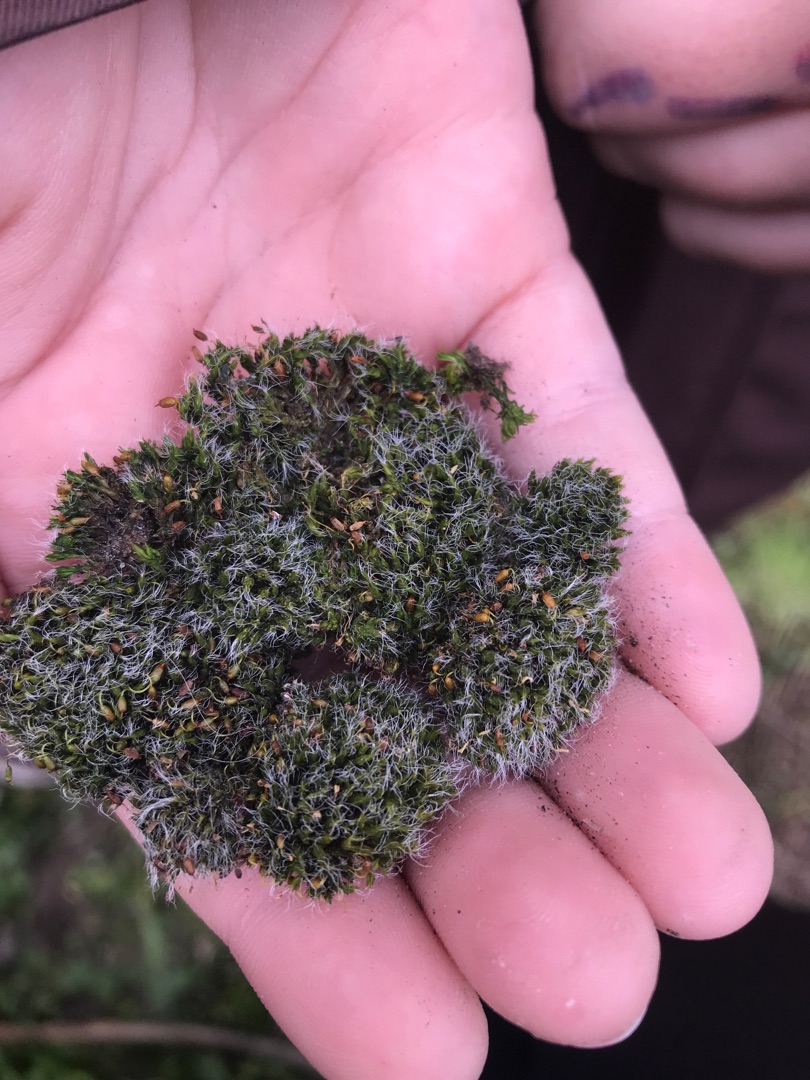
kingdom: Plantae
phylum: Bryophyta
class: Bryopsida
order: Grimmiales
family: Grimmiaceae
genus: Grimmia
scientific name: Grimmia pulvinata
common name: Pude-gråmos
